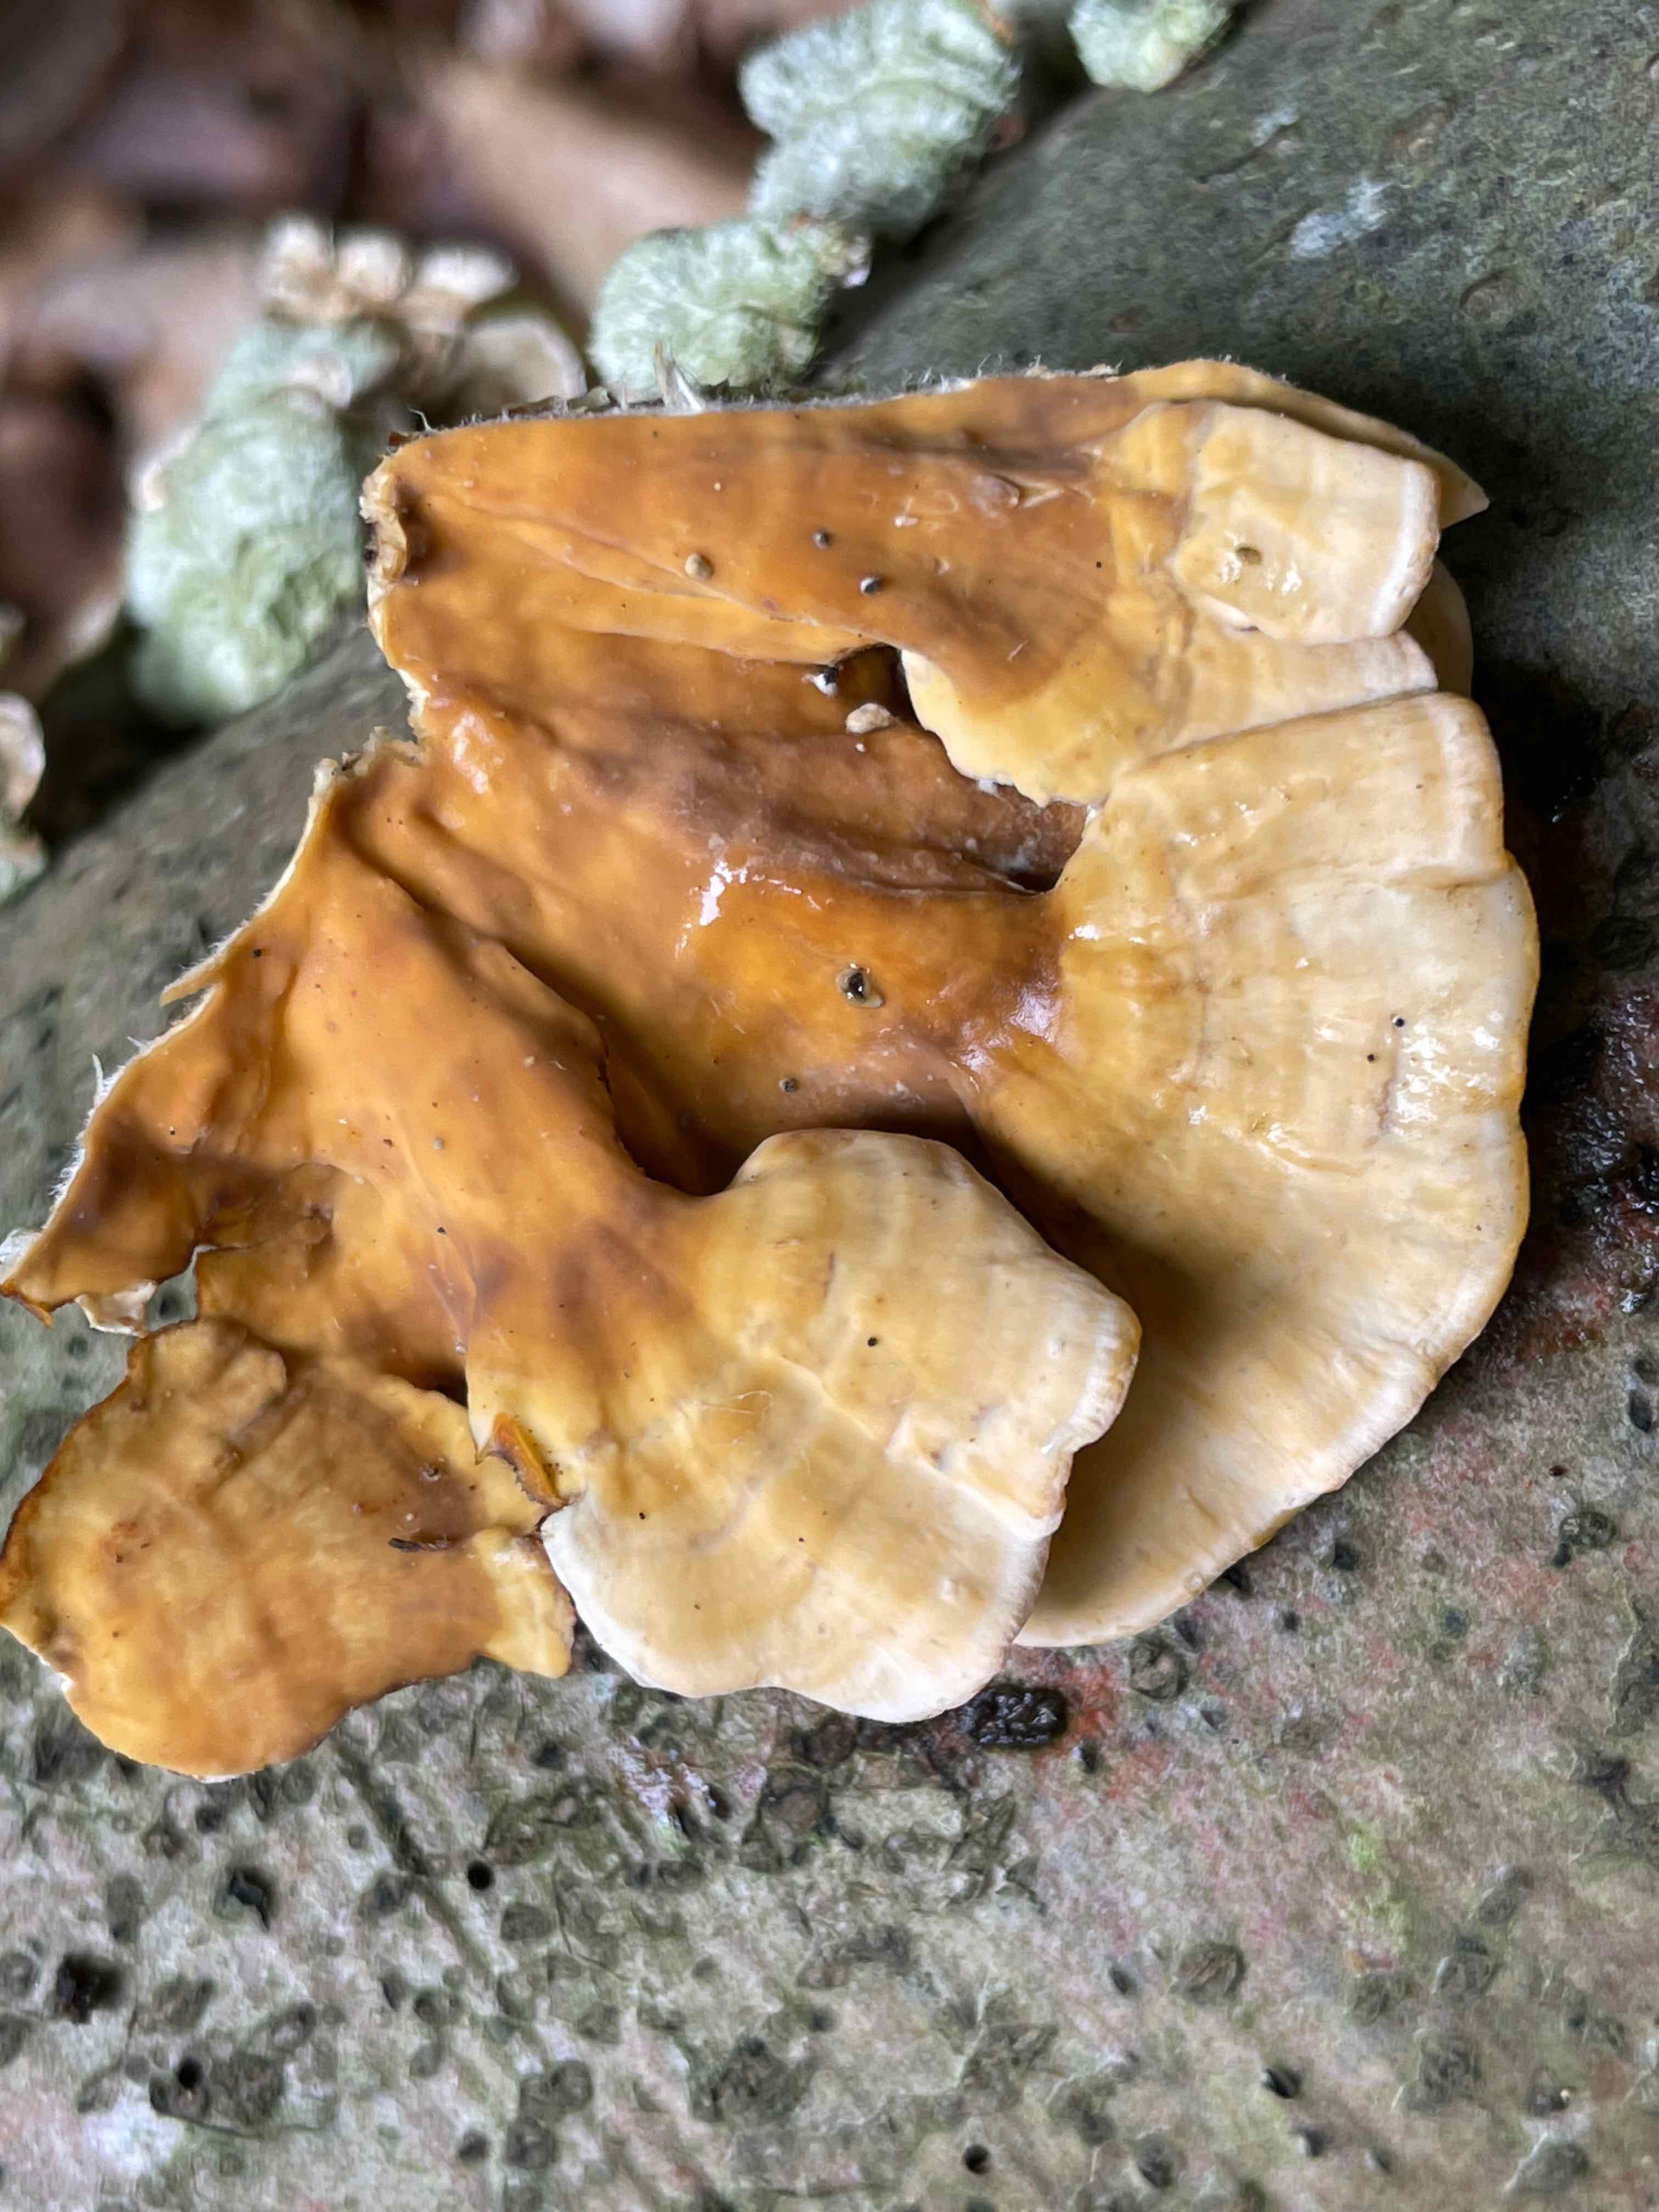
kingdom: Fungi
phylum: Basidiomycota
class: Agaricomycetes
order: Russulales
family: Stereaceae
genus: Stereum
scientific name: Stereum hirsutum
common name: håret lædersvamp
